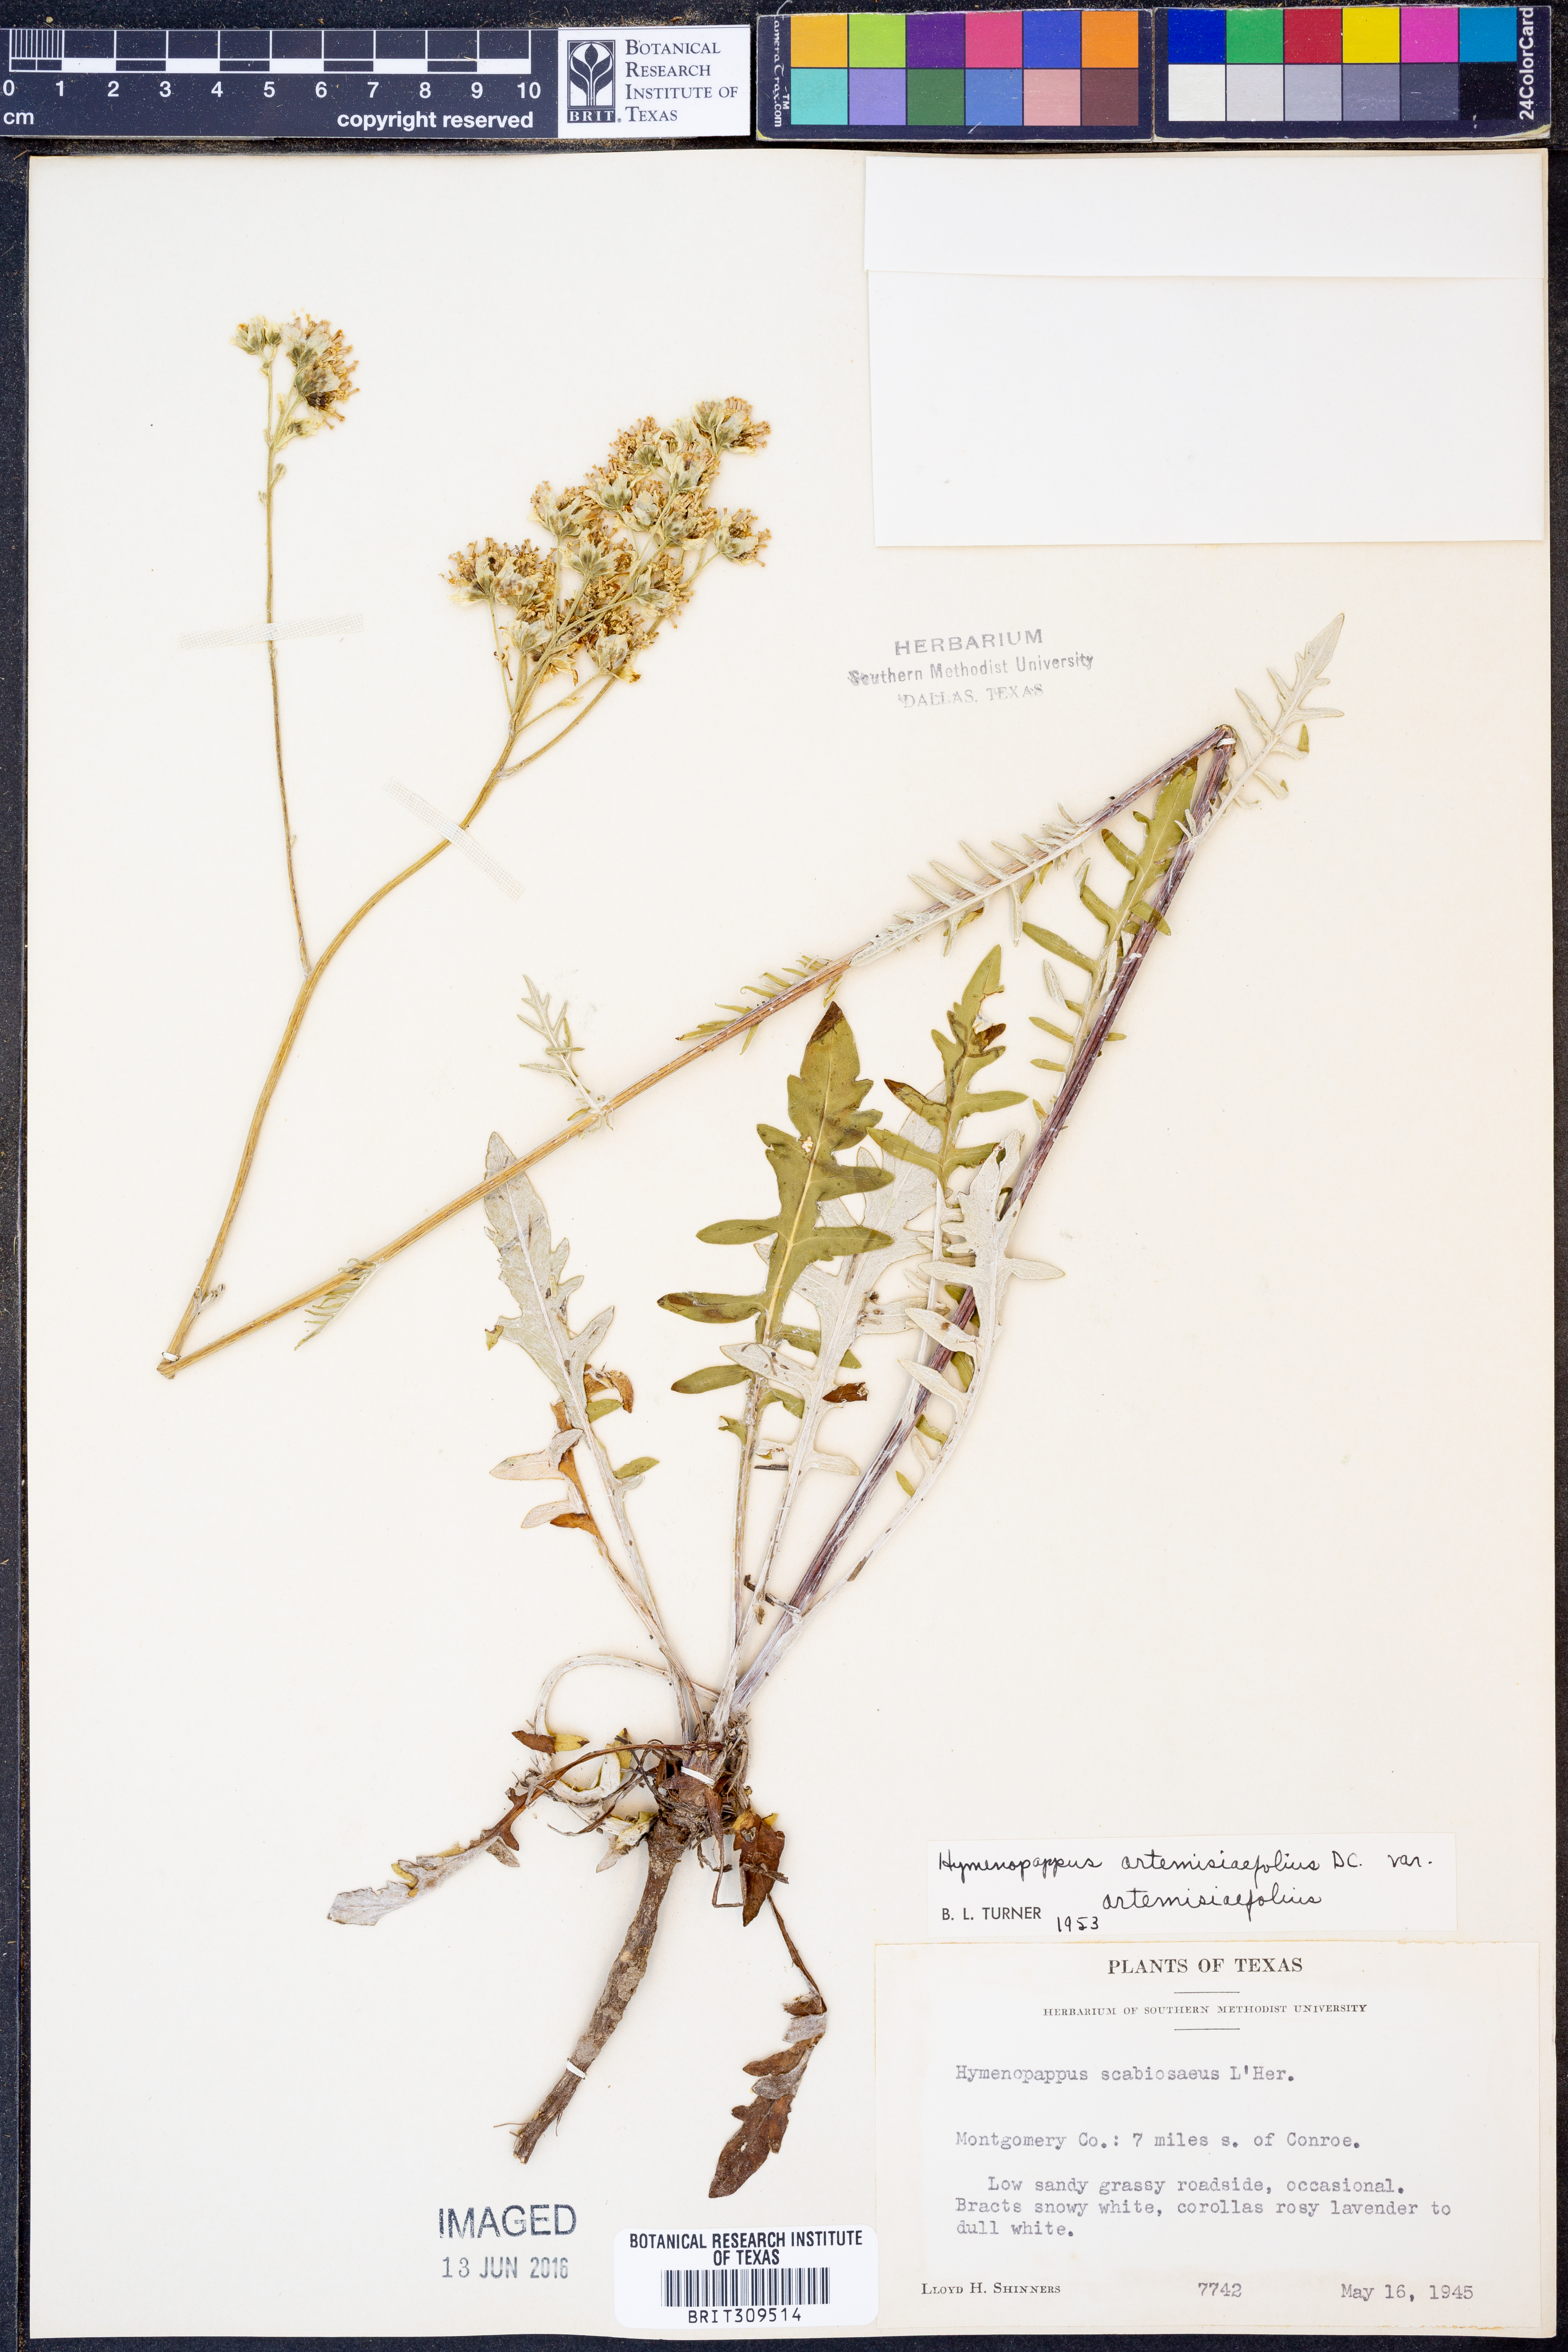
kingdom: Plantae
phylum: Tracheophyta
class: Magnoliopsida
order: Asterales
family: Asteraceae
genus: Hymenopappus
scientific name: Hymenopappus artemisiifolius
